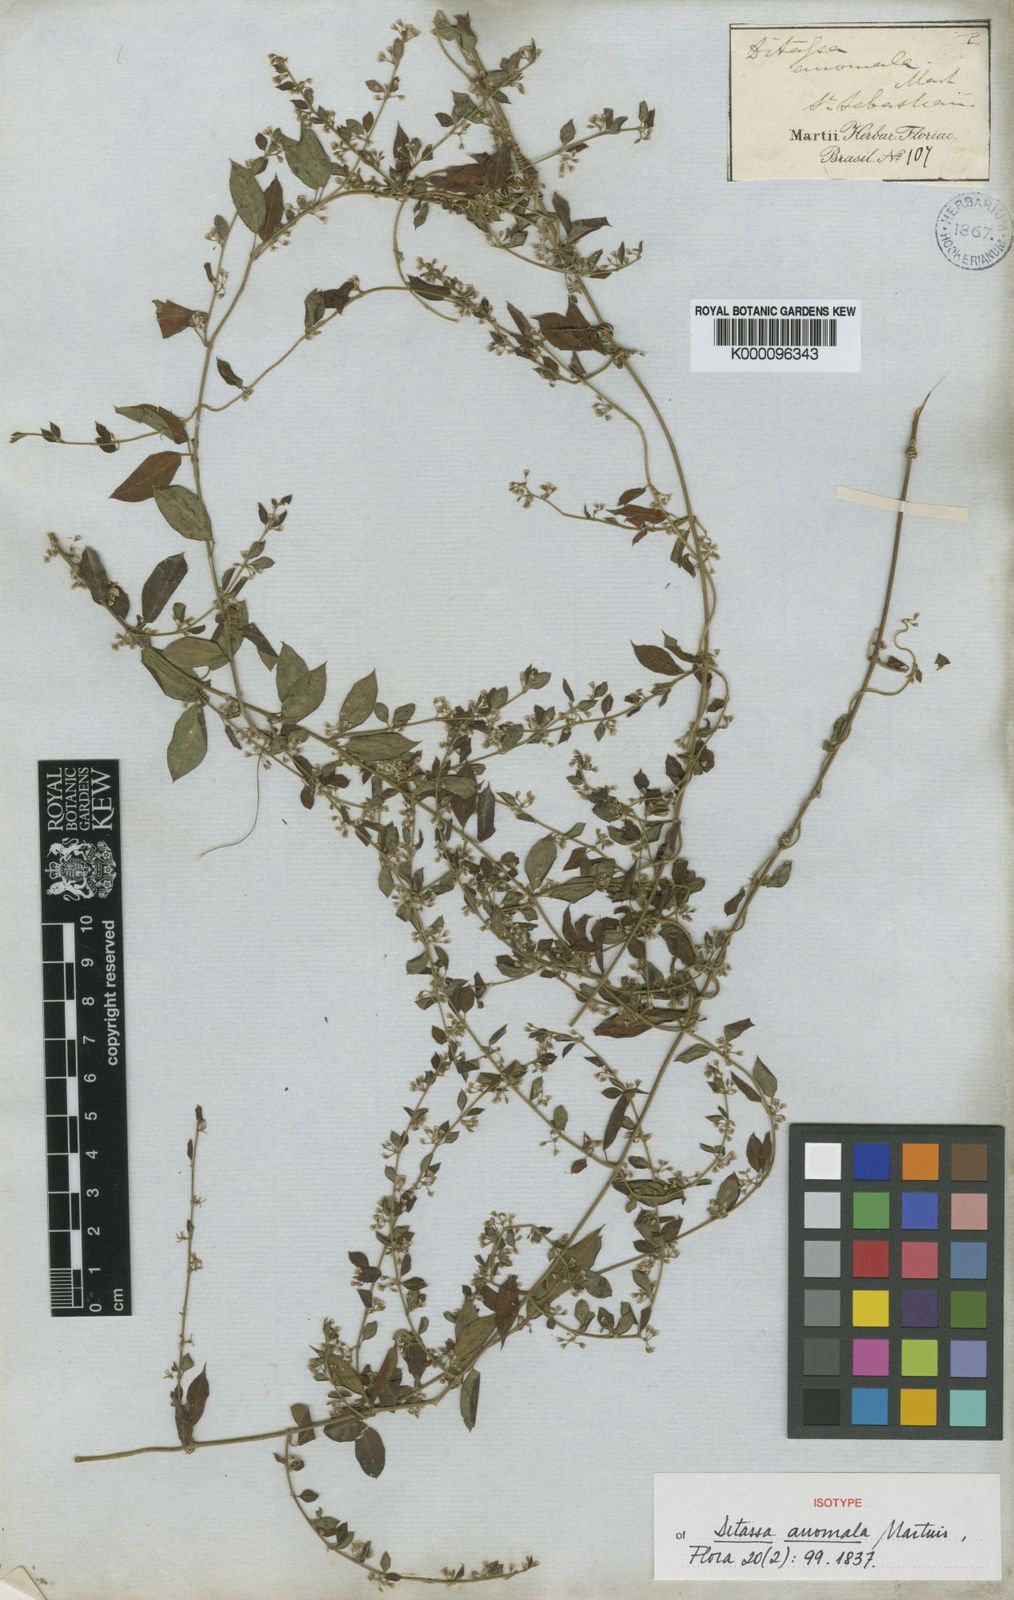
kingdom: Plantae
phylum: Tracheophyta
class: Magnoliopsida
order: Gentianales
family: Apocynaceae
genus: Metastelma
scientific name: Metastelma burchellii
